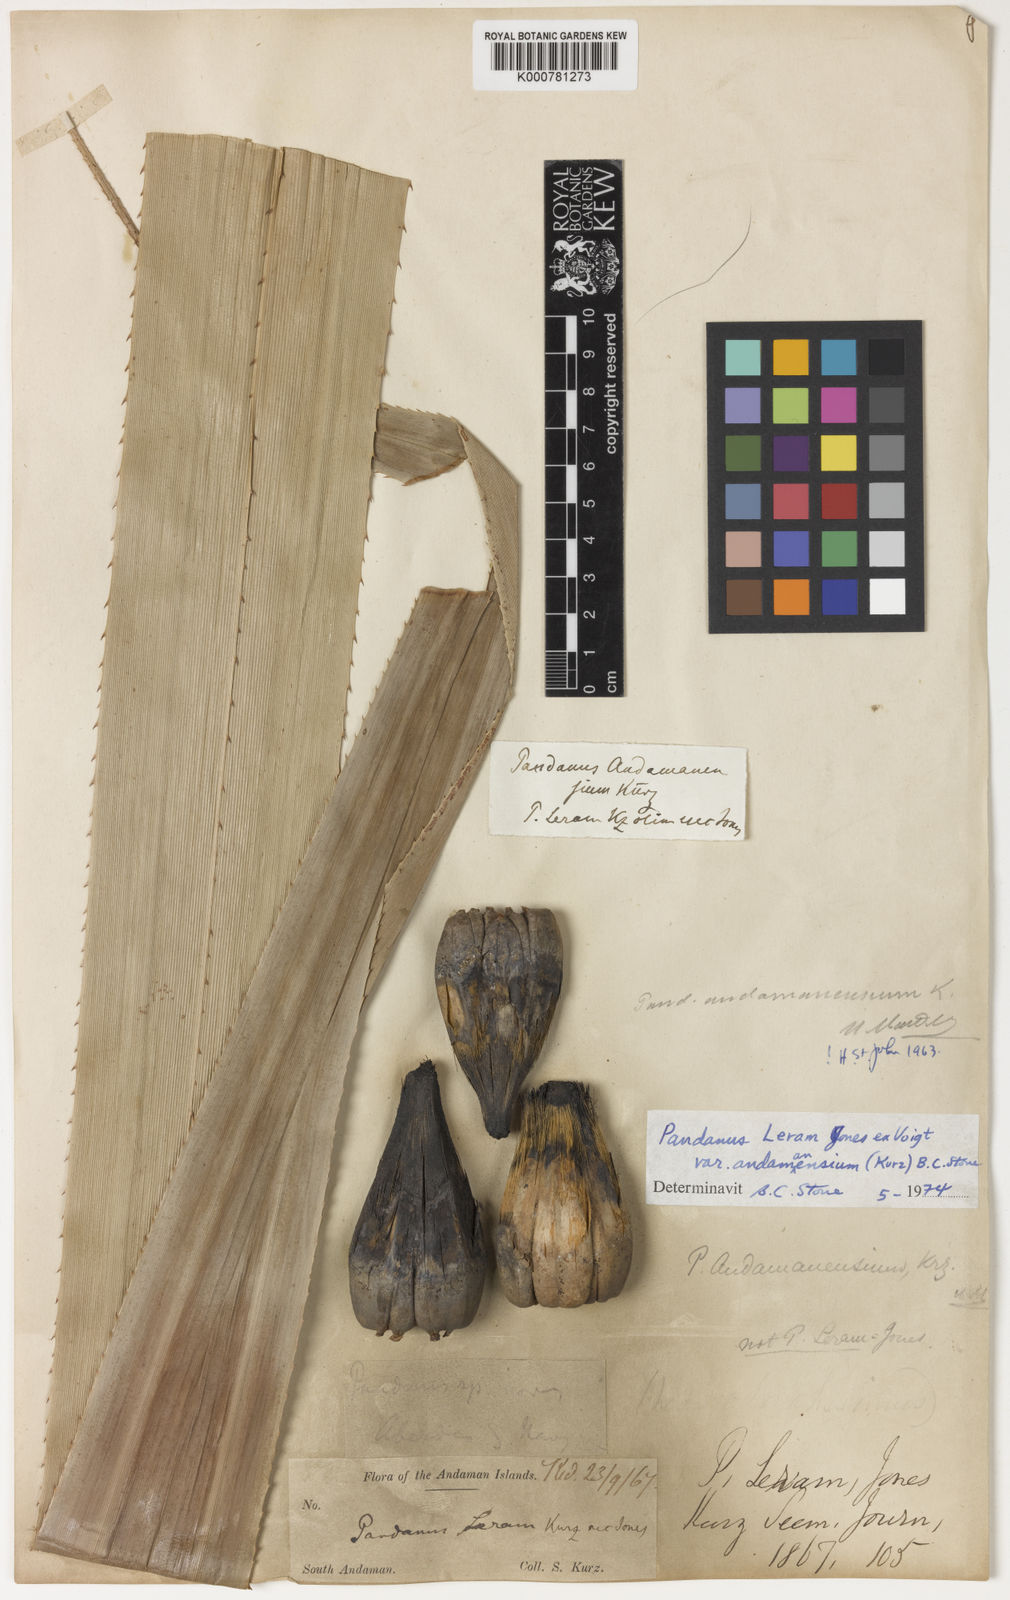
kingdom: Plantae
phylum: Tracheophyta
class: Liliopsida
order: Pandanales
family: Pandanaceae
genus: Pandanus
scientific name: Pandanus
